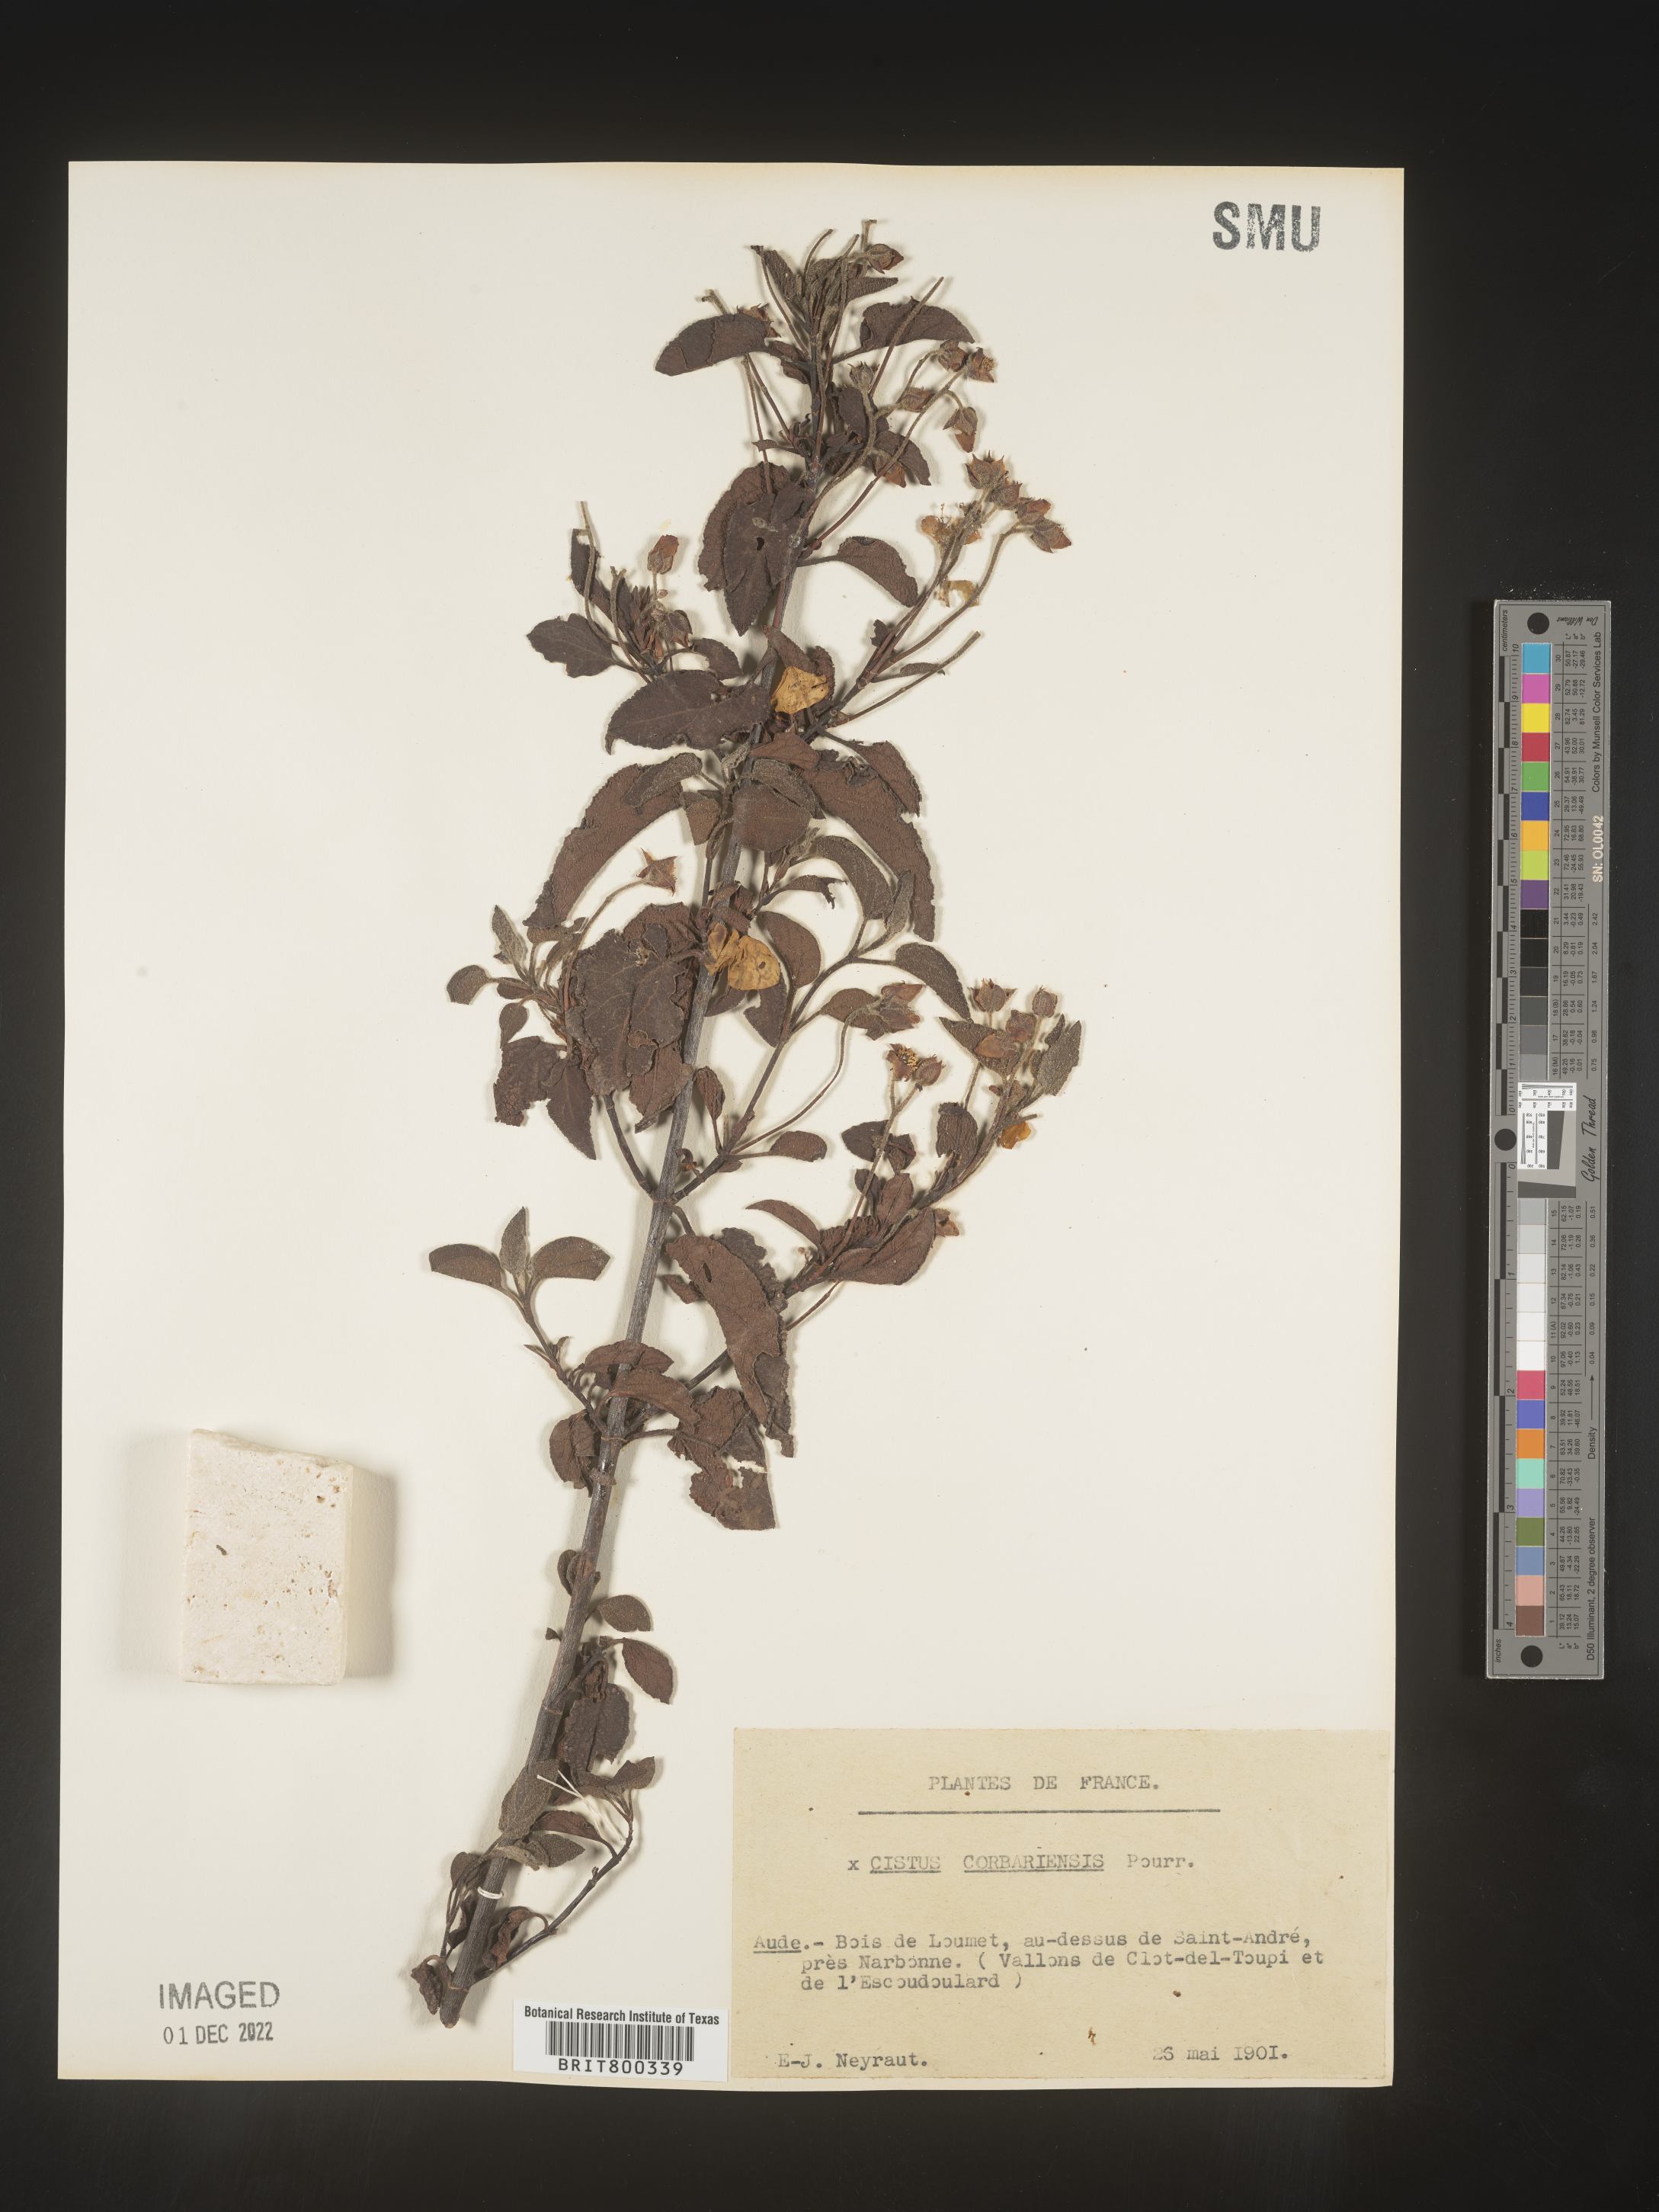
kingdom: Plantae
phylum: Tracheophyta
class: Magnoliopsida
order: Malvales
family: Cistaceae
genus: Cistus
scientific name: Cistus
